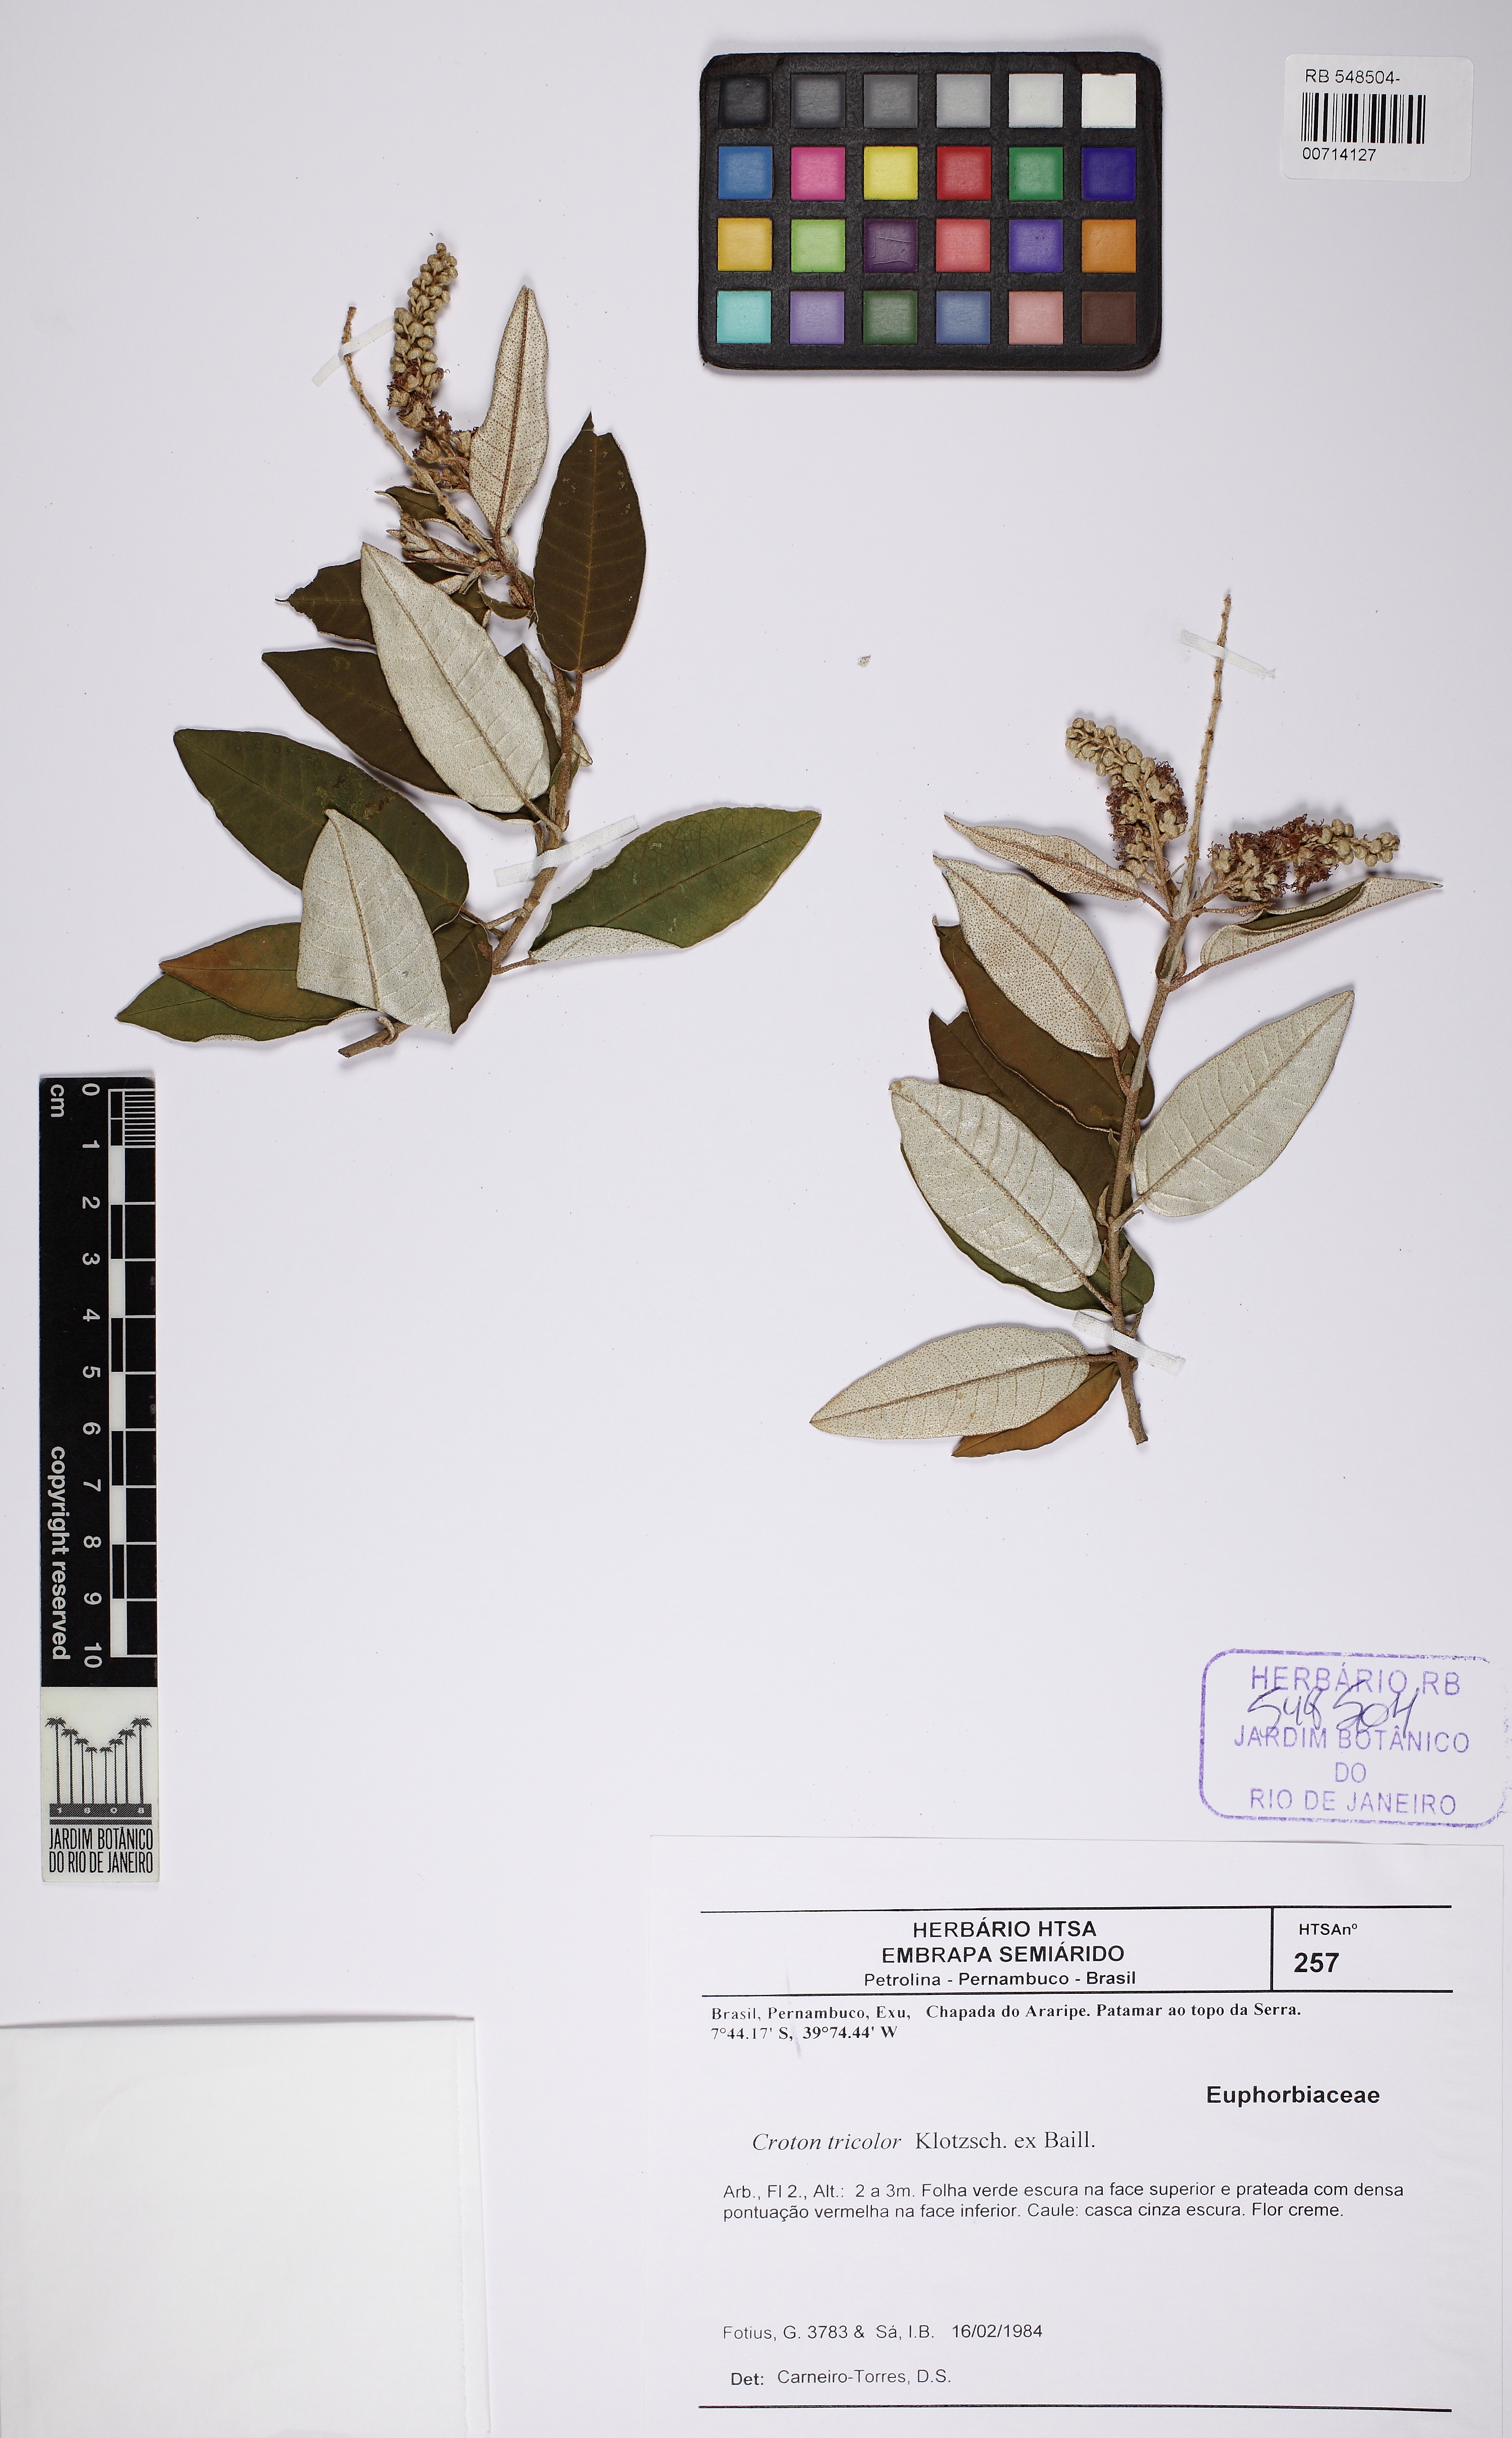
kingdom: Plantae
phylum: Tracheophyta
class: Magnoliopsida
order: Malpighiales
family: Euphorbiaceae
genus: Croton
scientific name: Croton tricolor
